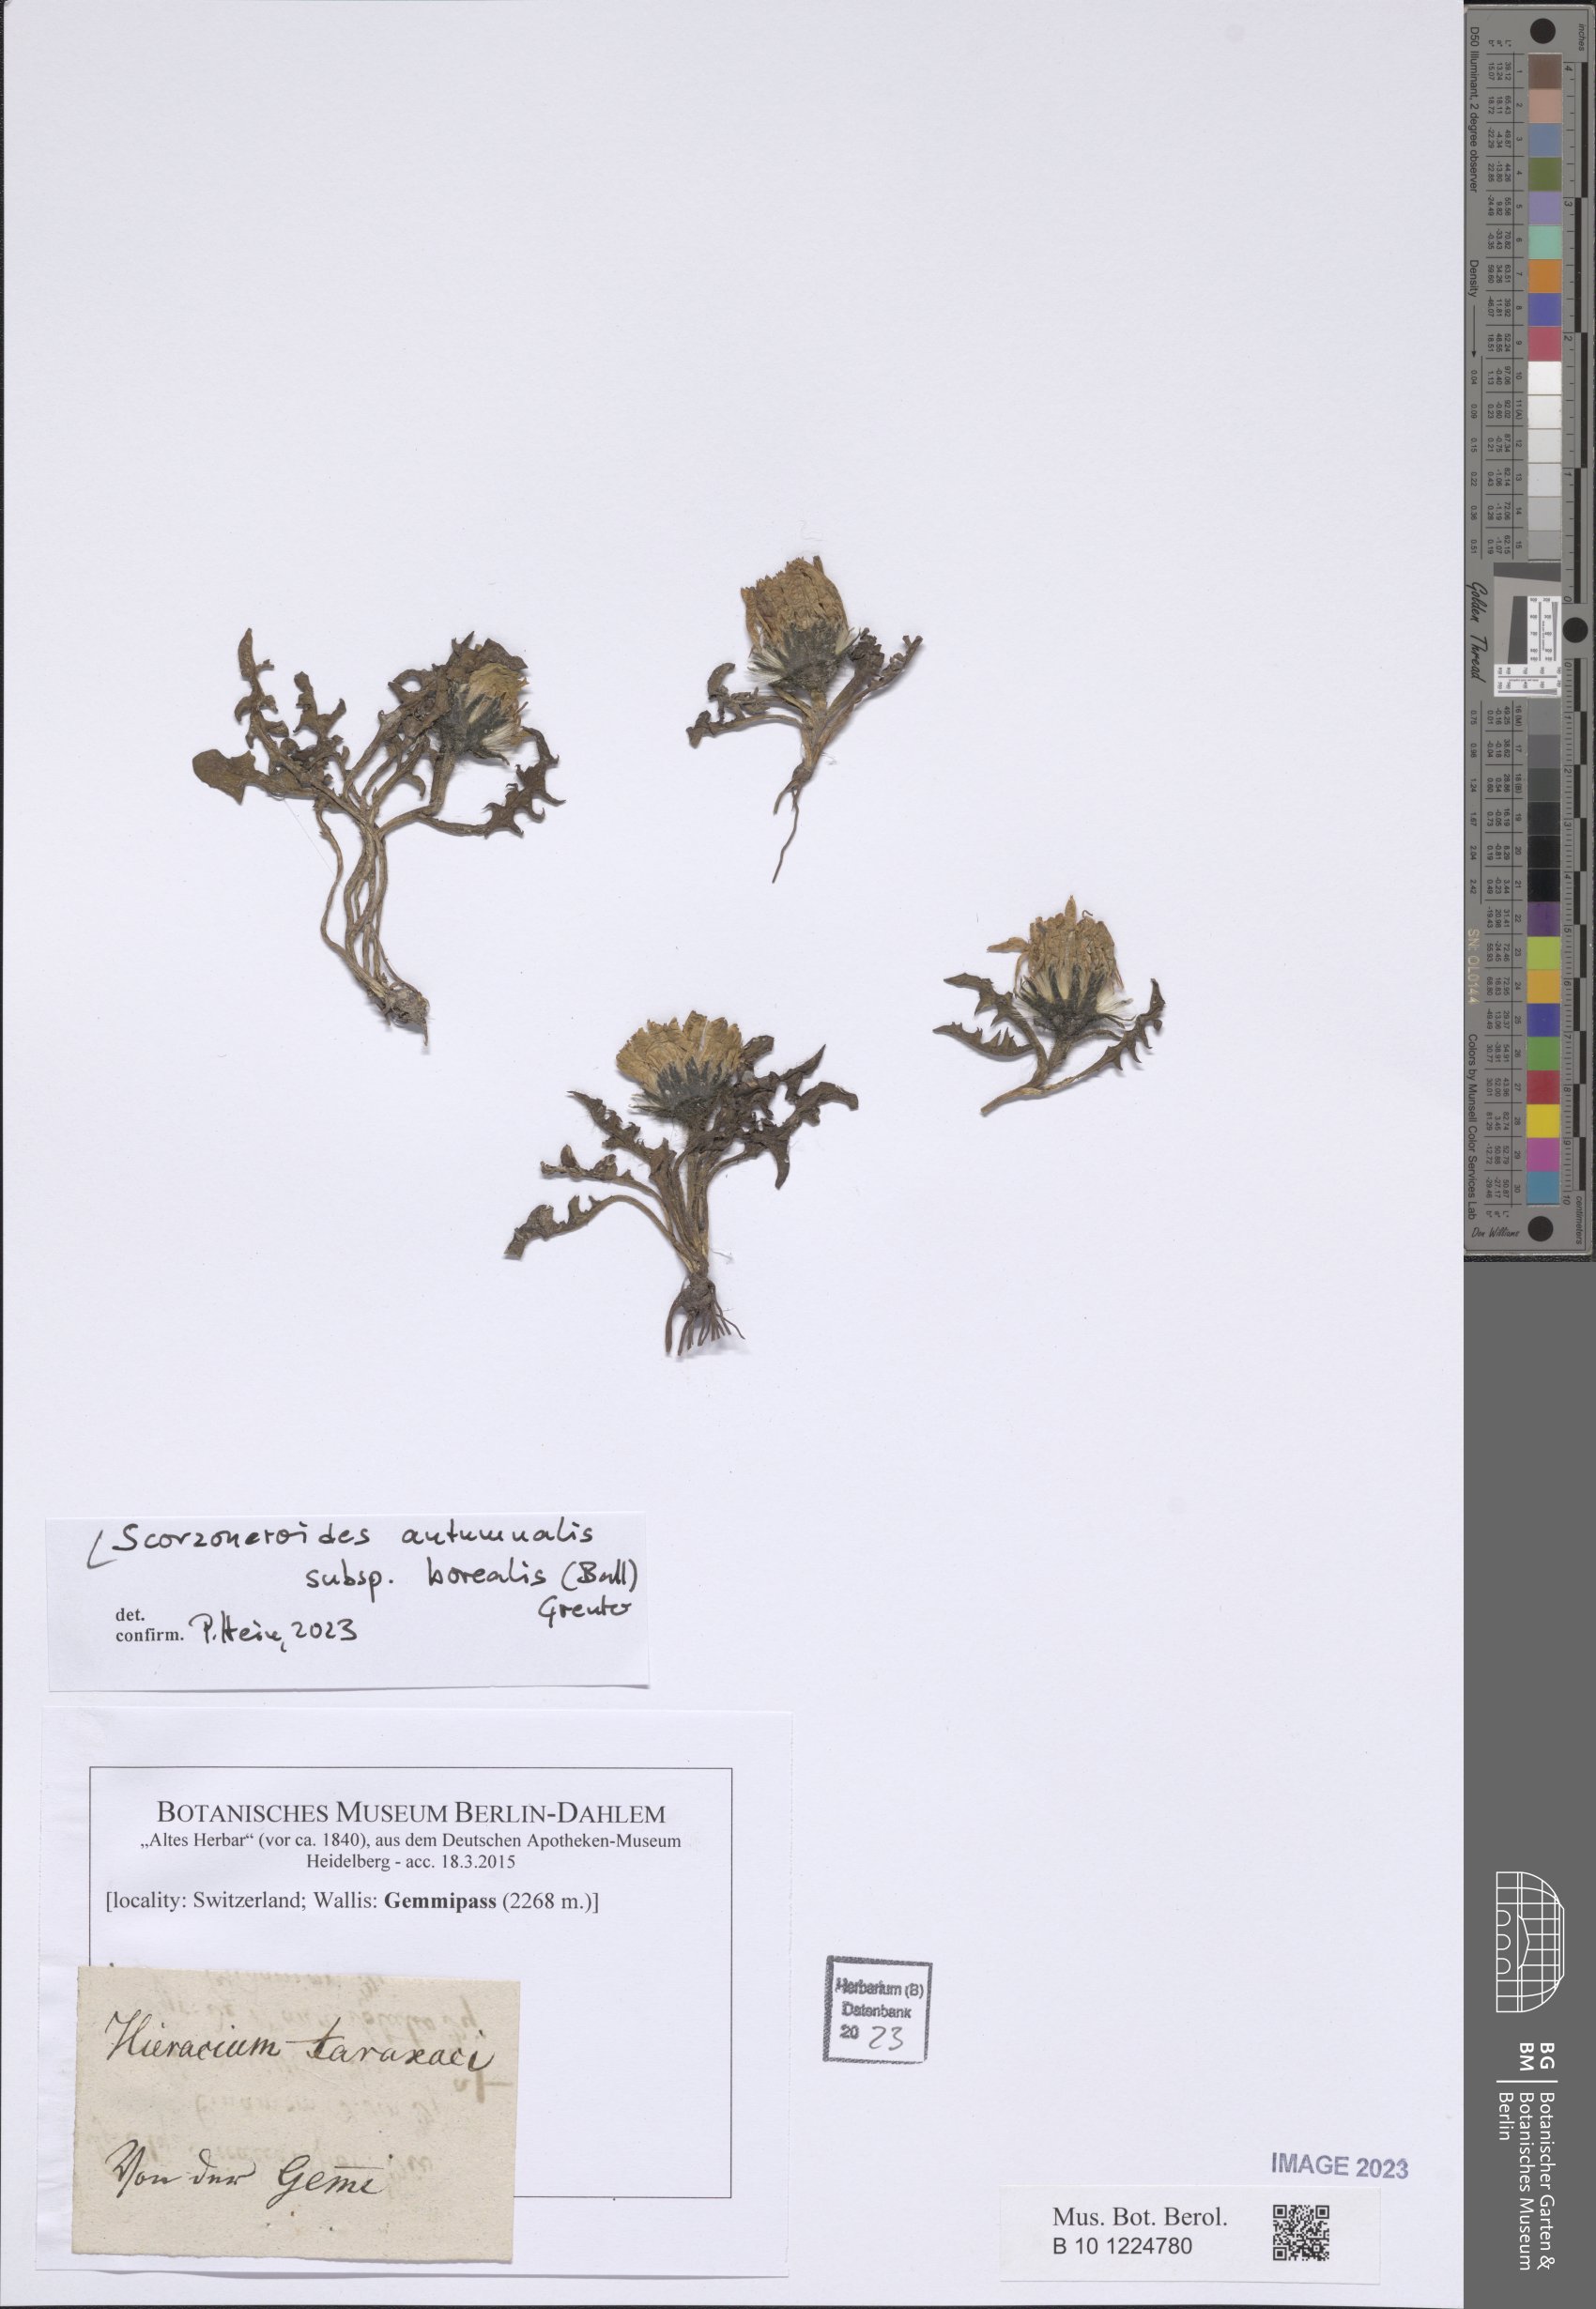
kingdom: Plantae
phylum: Tracheophyta
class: Magnoliopsida
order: Asterales
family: Asteraceae
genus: Scorzoneroides
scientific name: Scorzoneroides autumnalis
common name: Autumn hawkbit
